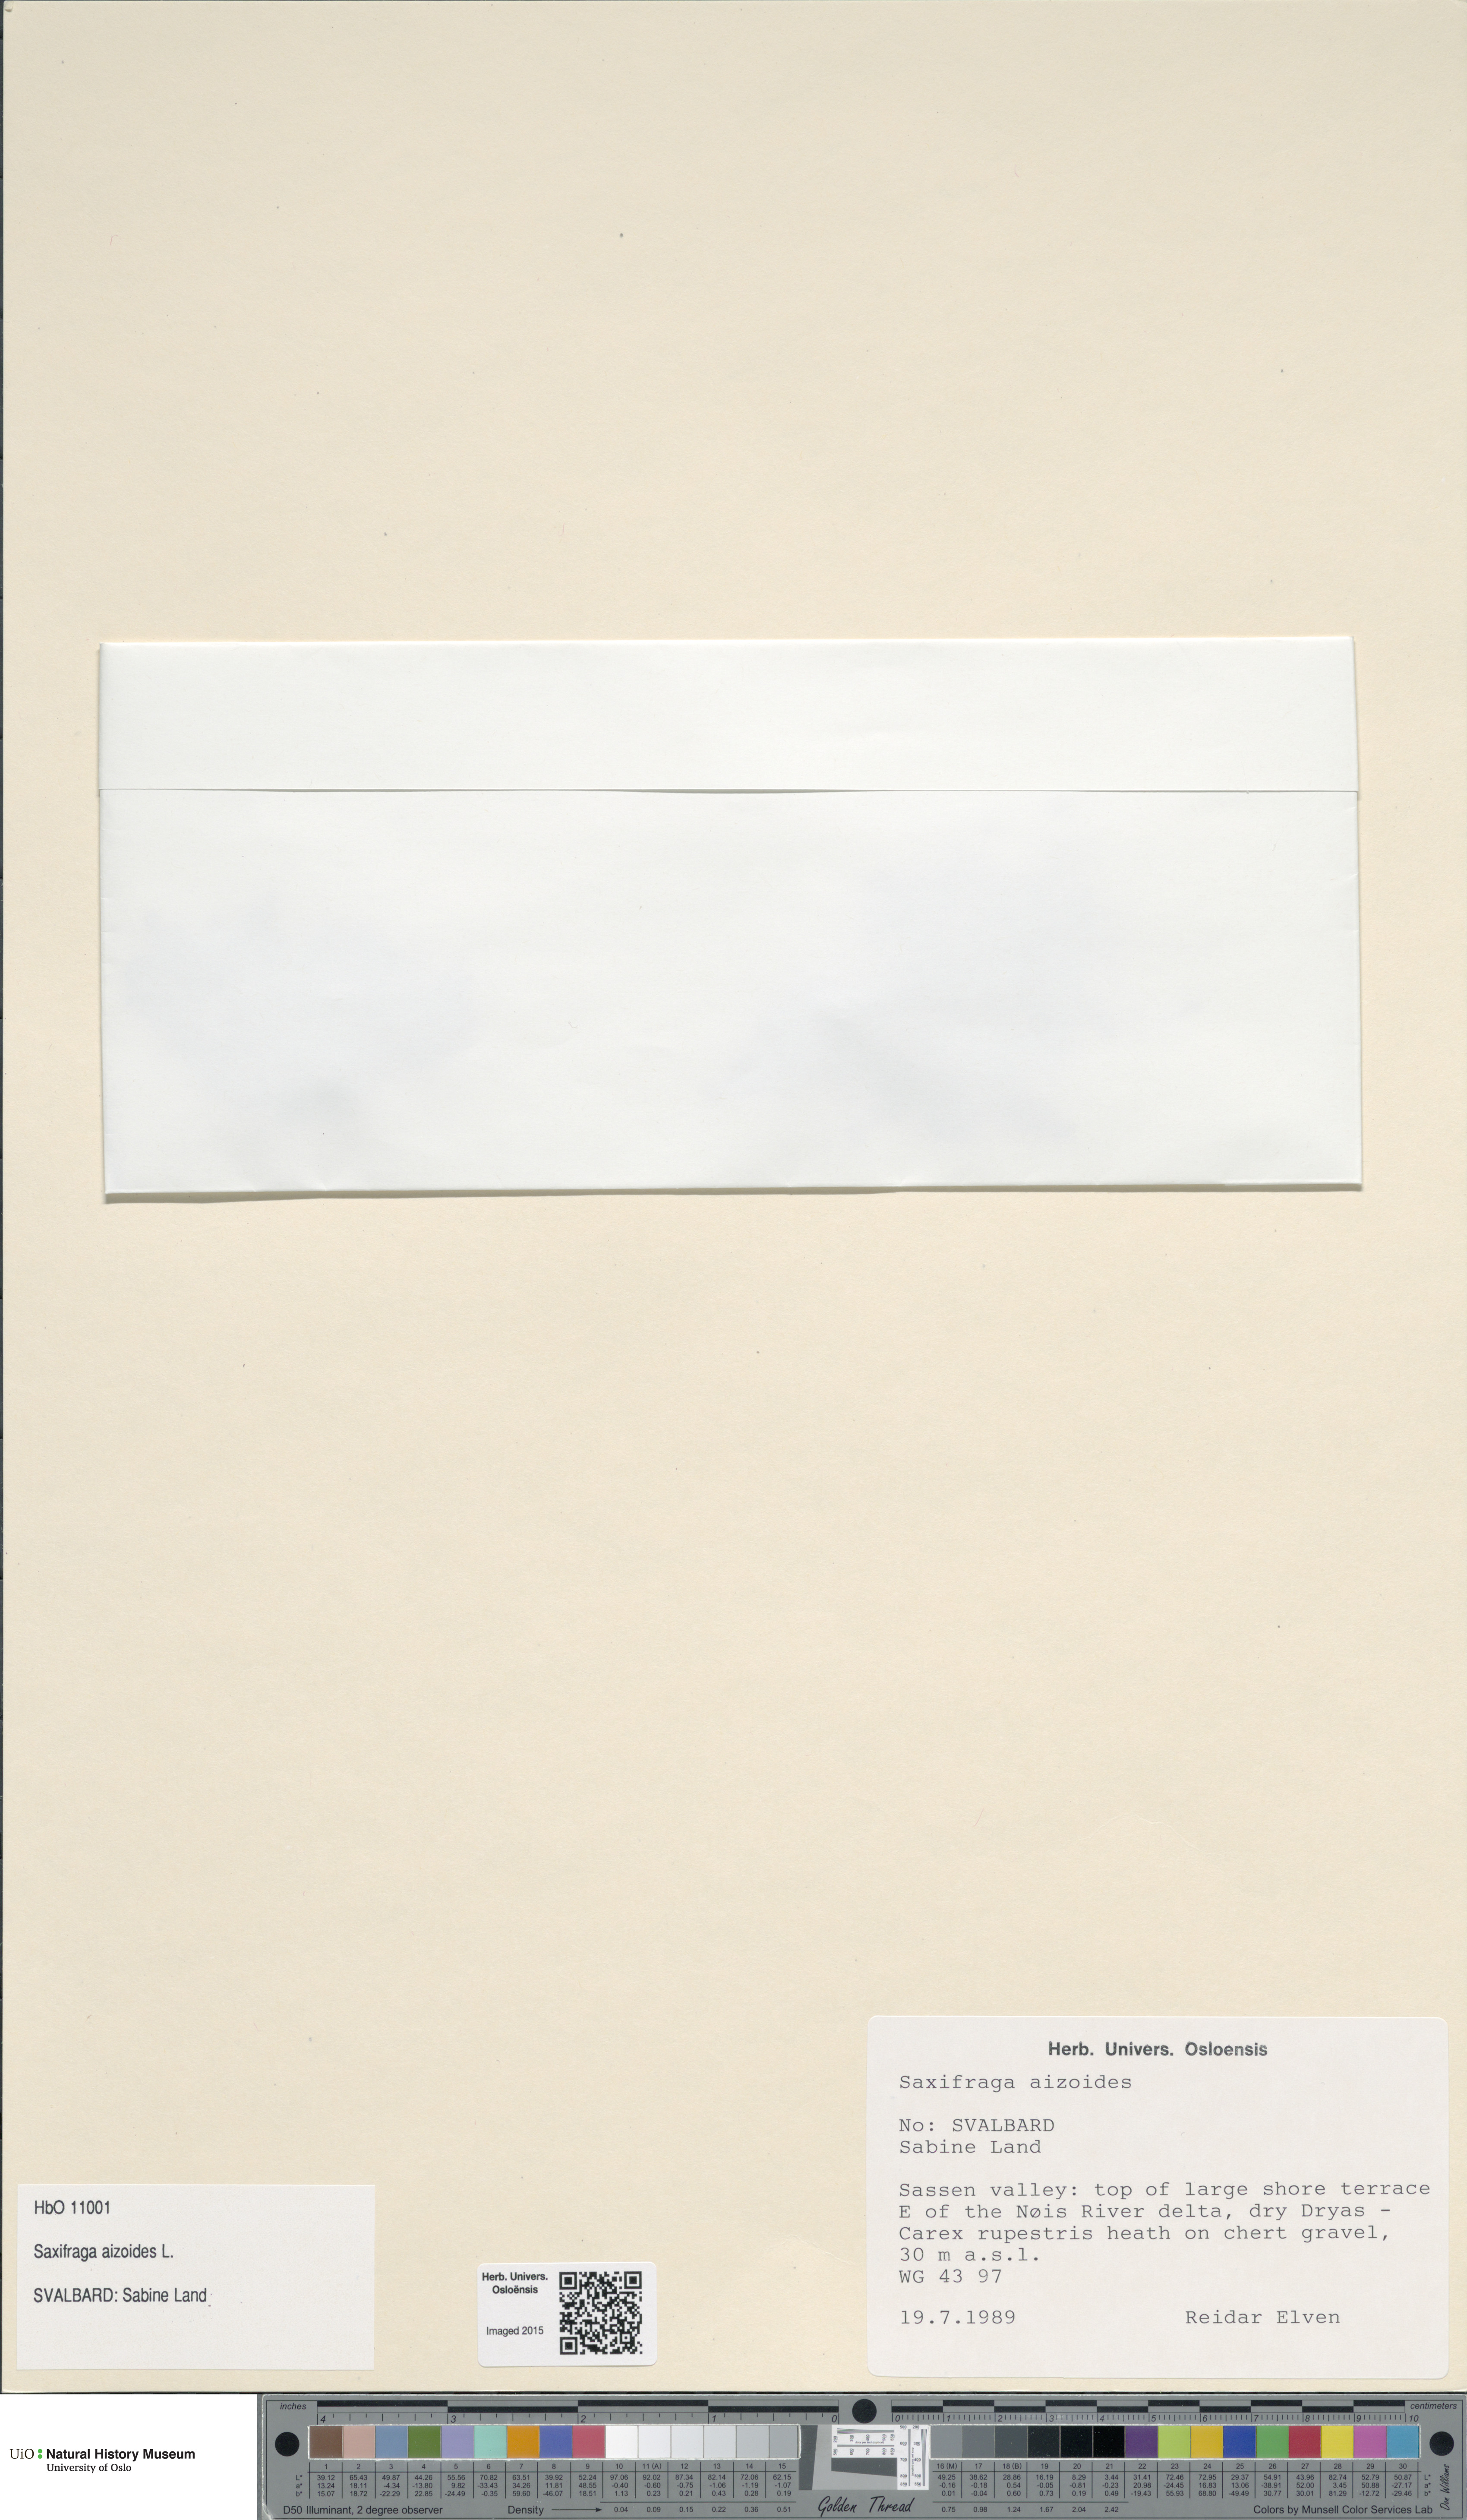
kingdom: Plantae
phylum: Tracheophyta
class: Magnoliopsida
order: Saxifragales
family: Saxifragaceae
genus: Saxifraga
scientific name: Saxifraga aizoides
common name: Yellow mountain saxifrage
